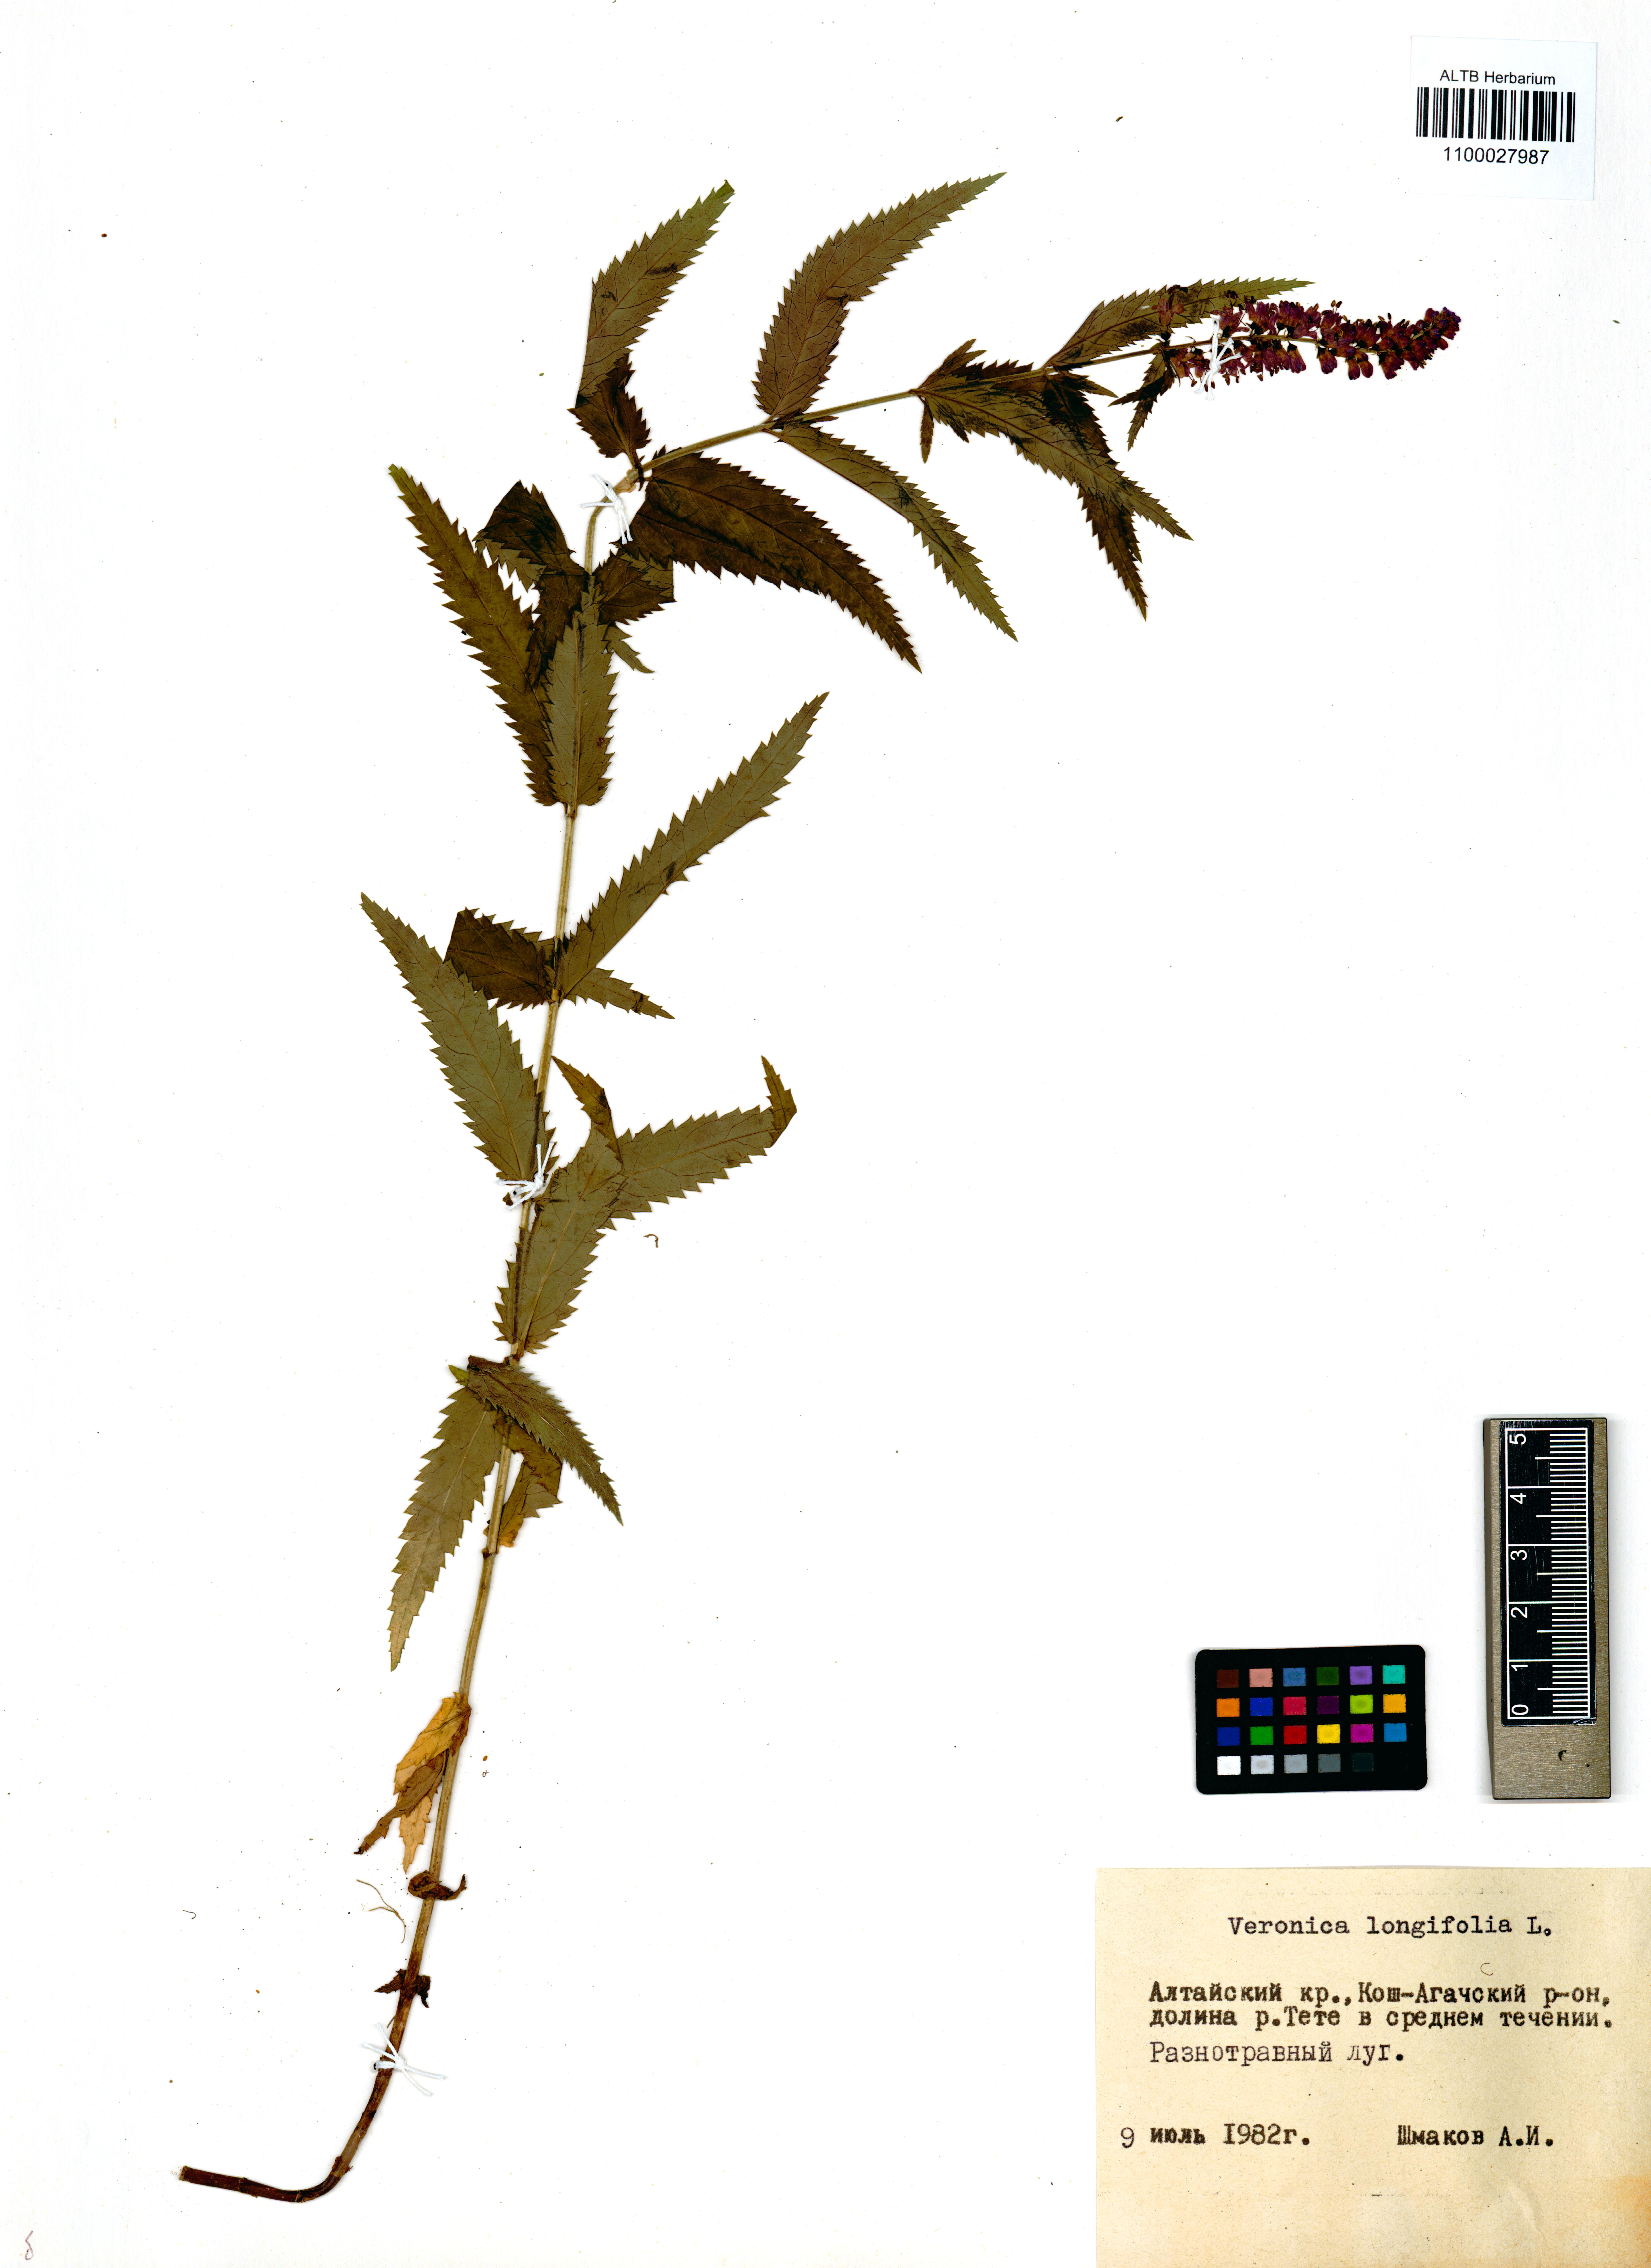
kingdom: Plantae
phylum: Tracheophyta
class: Magnoliopsida
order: Lamiales
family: Plantaginaceae
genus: Veronica
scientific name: Veronica longifolia
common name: Garden speedwell
